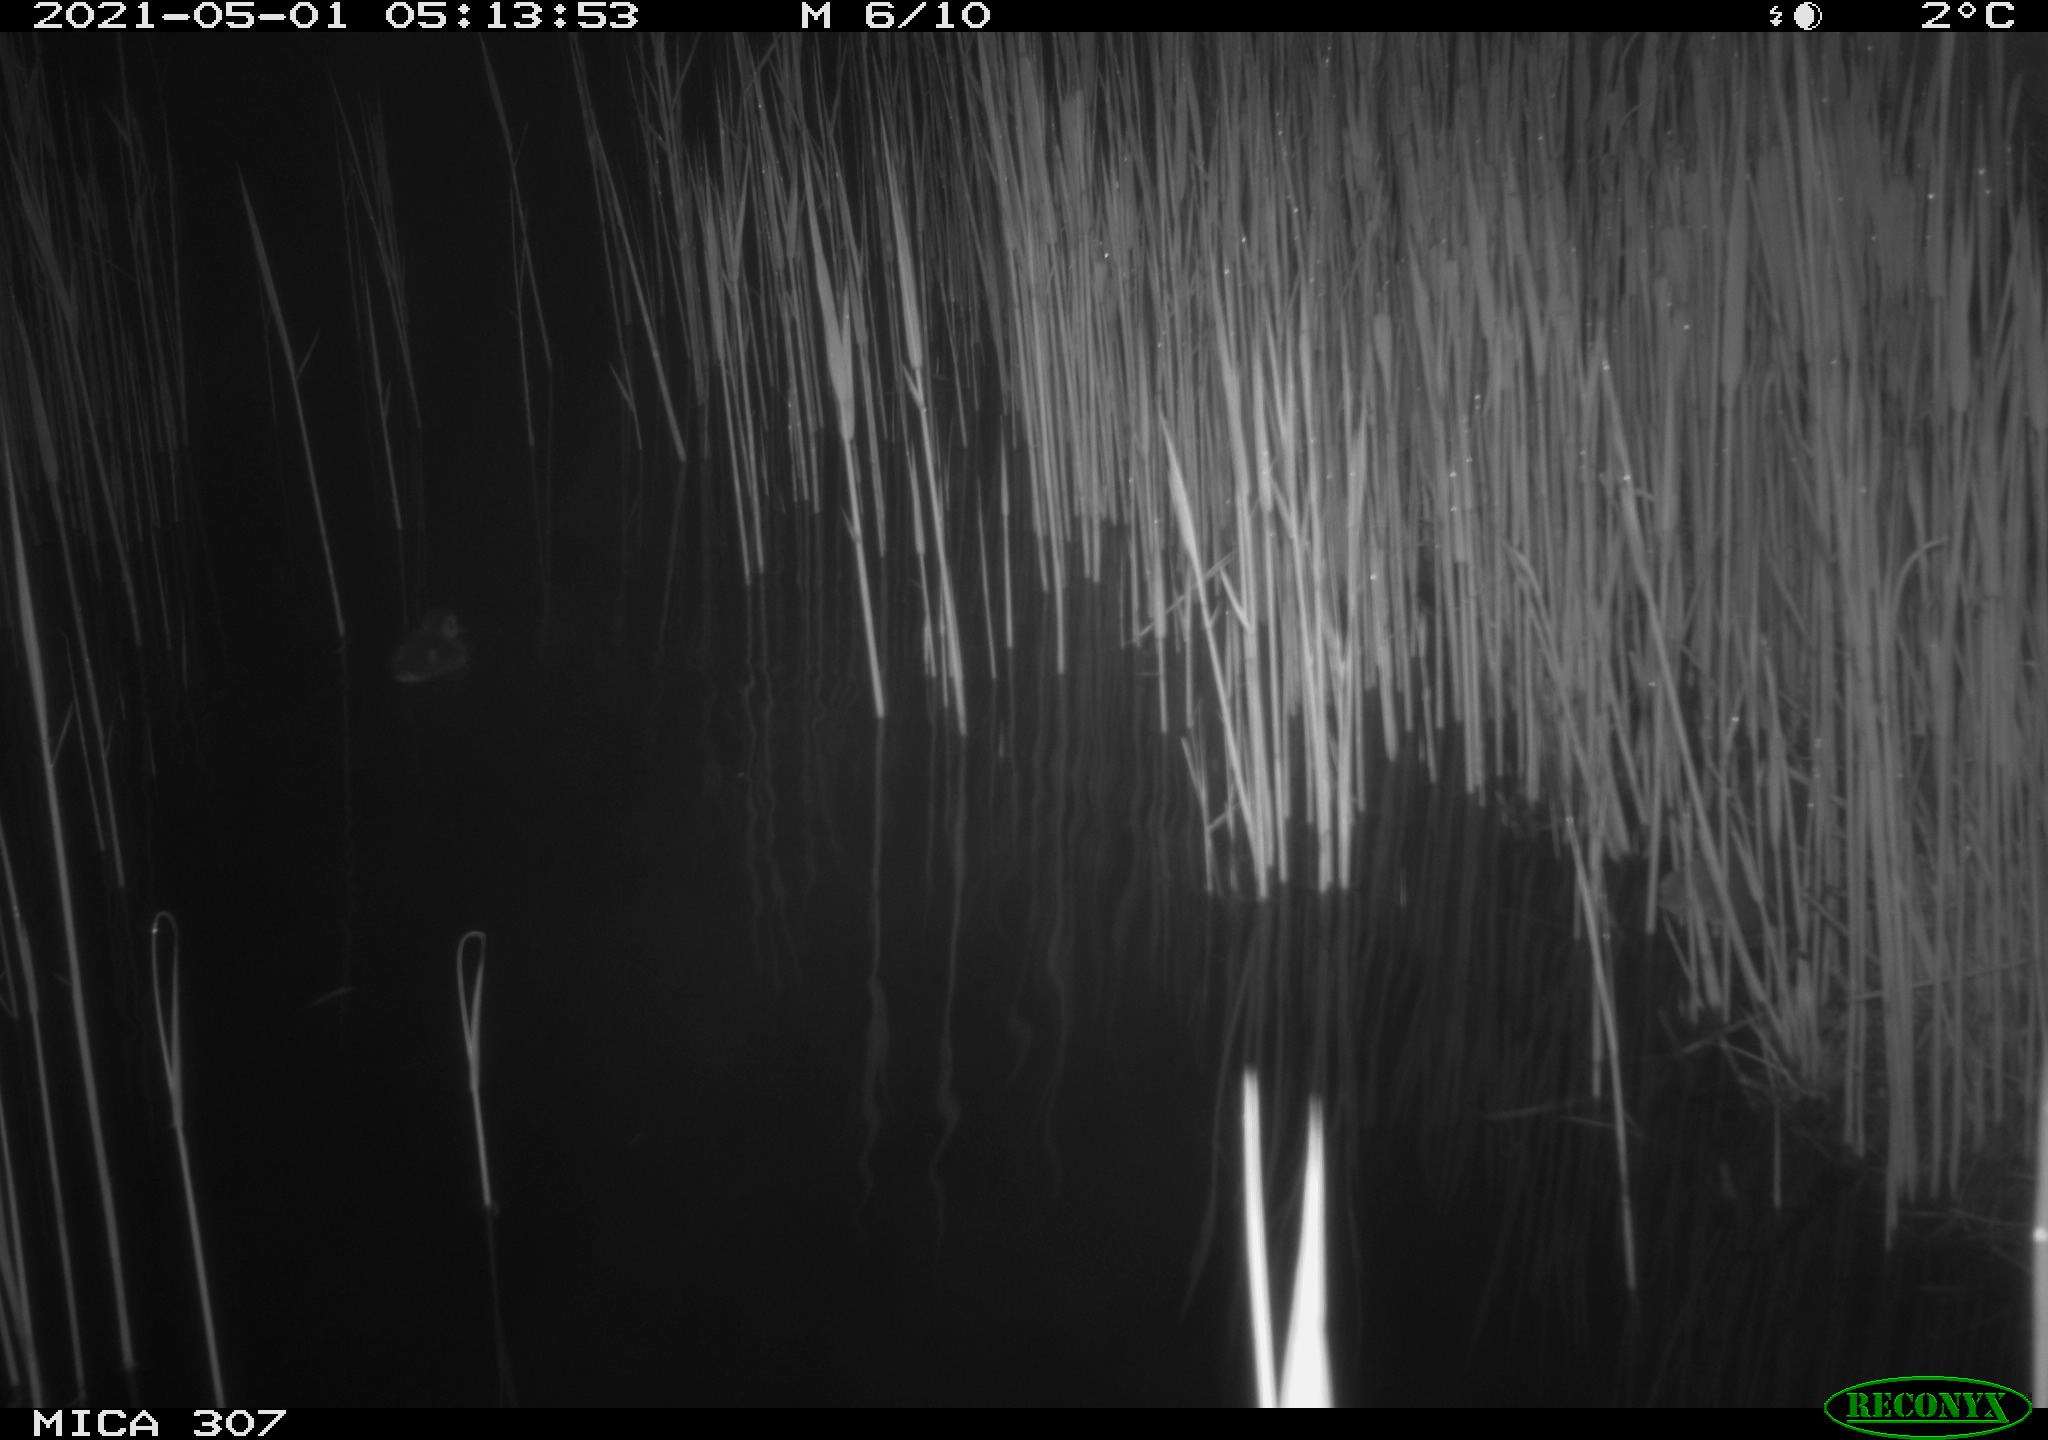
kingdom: Animalia
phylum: Chordata
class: Aves
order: Anseriformes
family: Anatidae
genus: Anas
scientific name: Anas platyrhynchos
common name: Mallard
